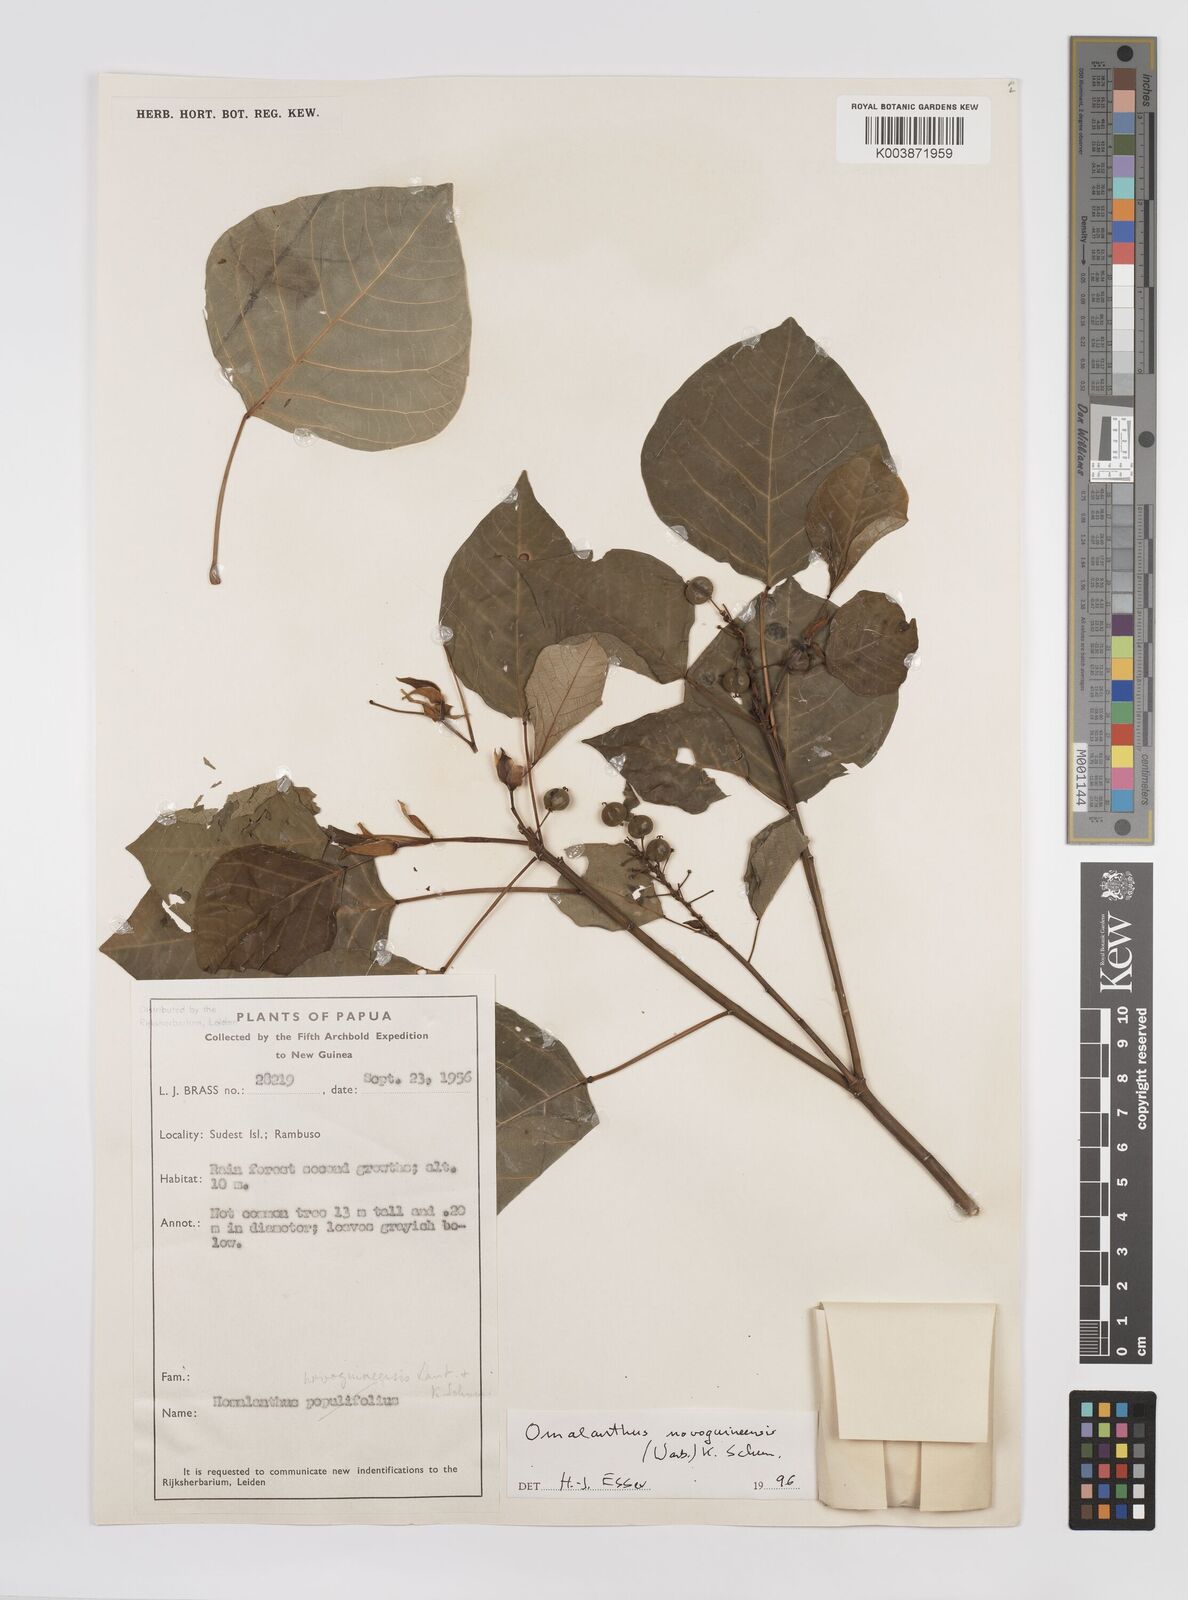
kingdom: Plantae
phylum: Tracheophyta
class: Magnoliopsida
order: Malpighiales
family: Euphorbiaceae
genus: Homalanthus
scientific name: Homalanthus novoguineensis
